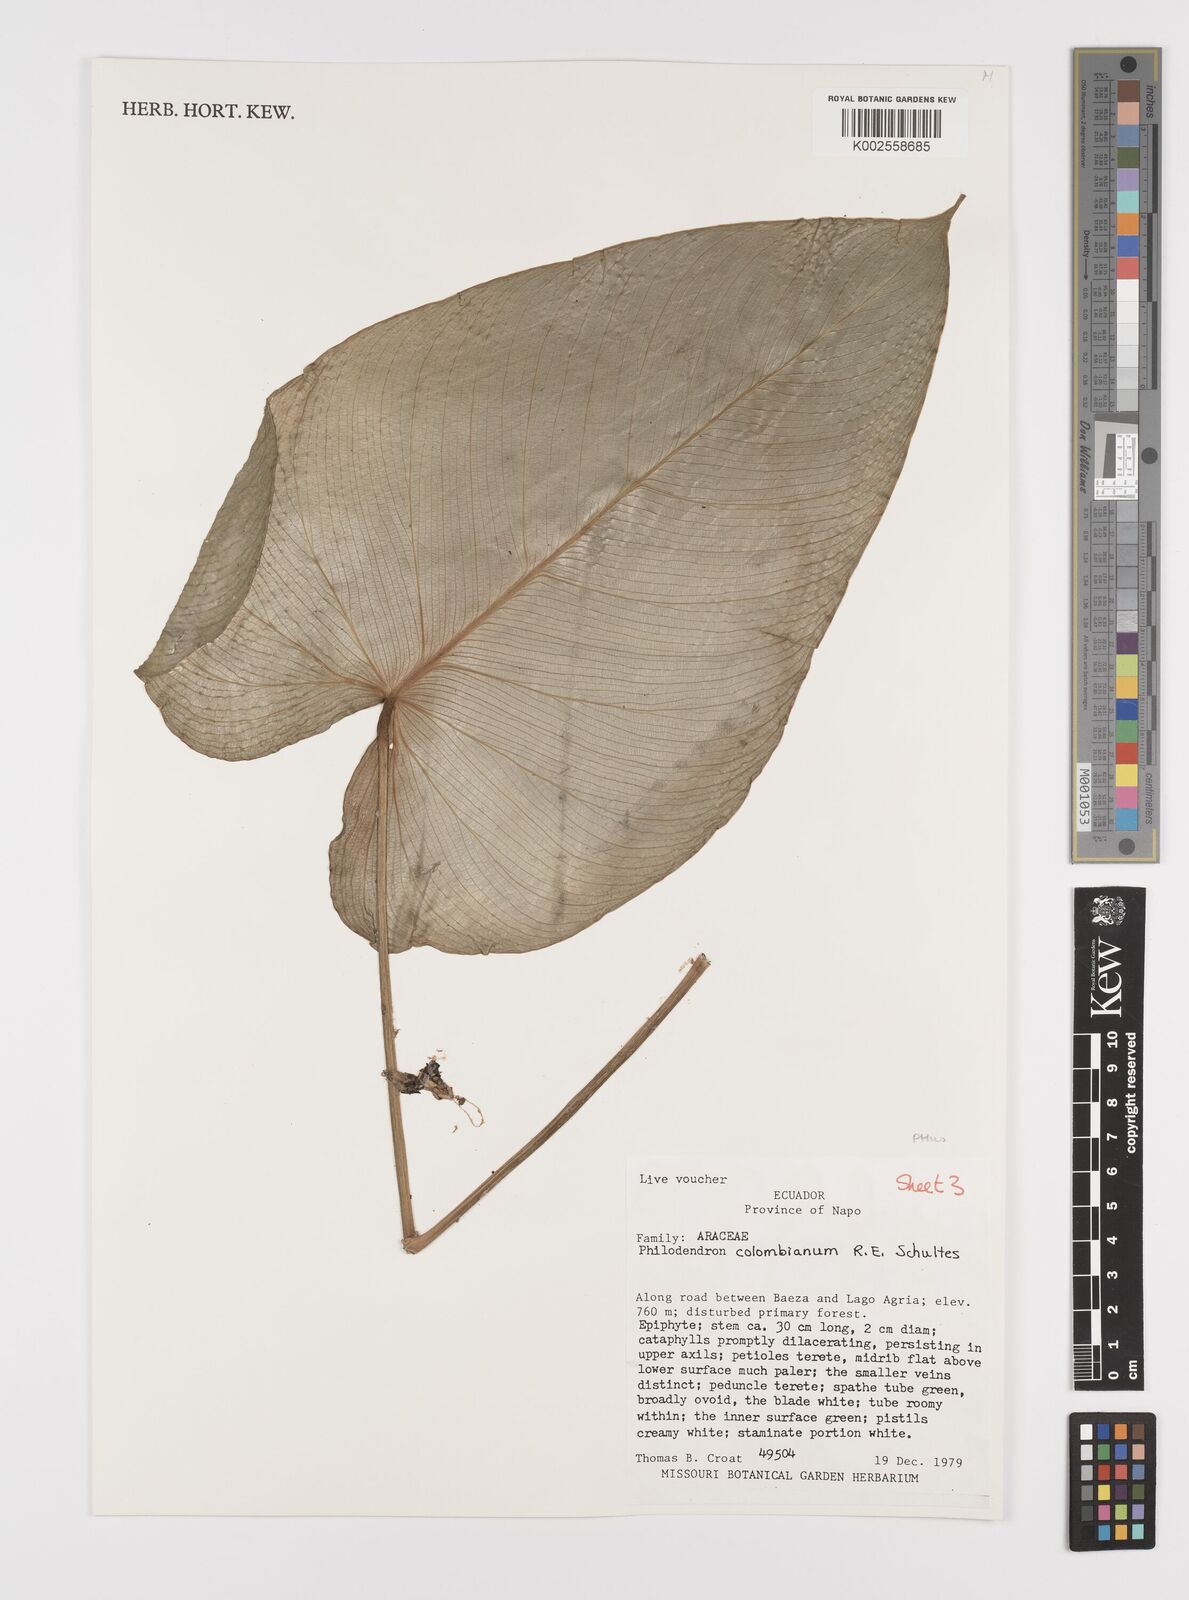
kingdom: Plantae
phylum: Tracheophyta
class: Liliopsida
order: Alismatales
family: Araceae
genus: Philodendron
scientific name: Philodendron colombianum
